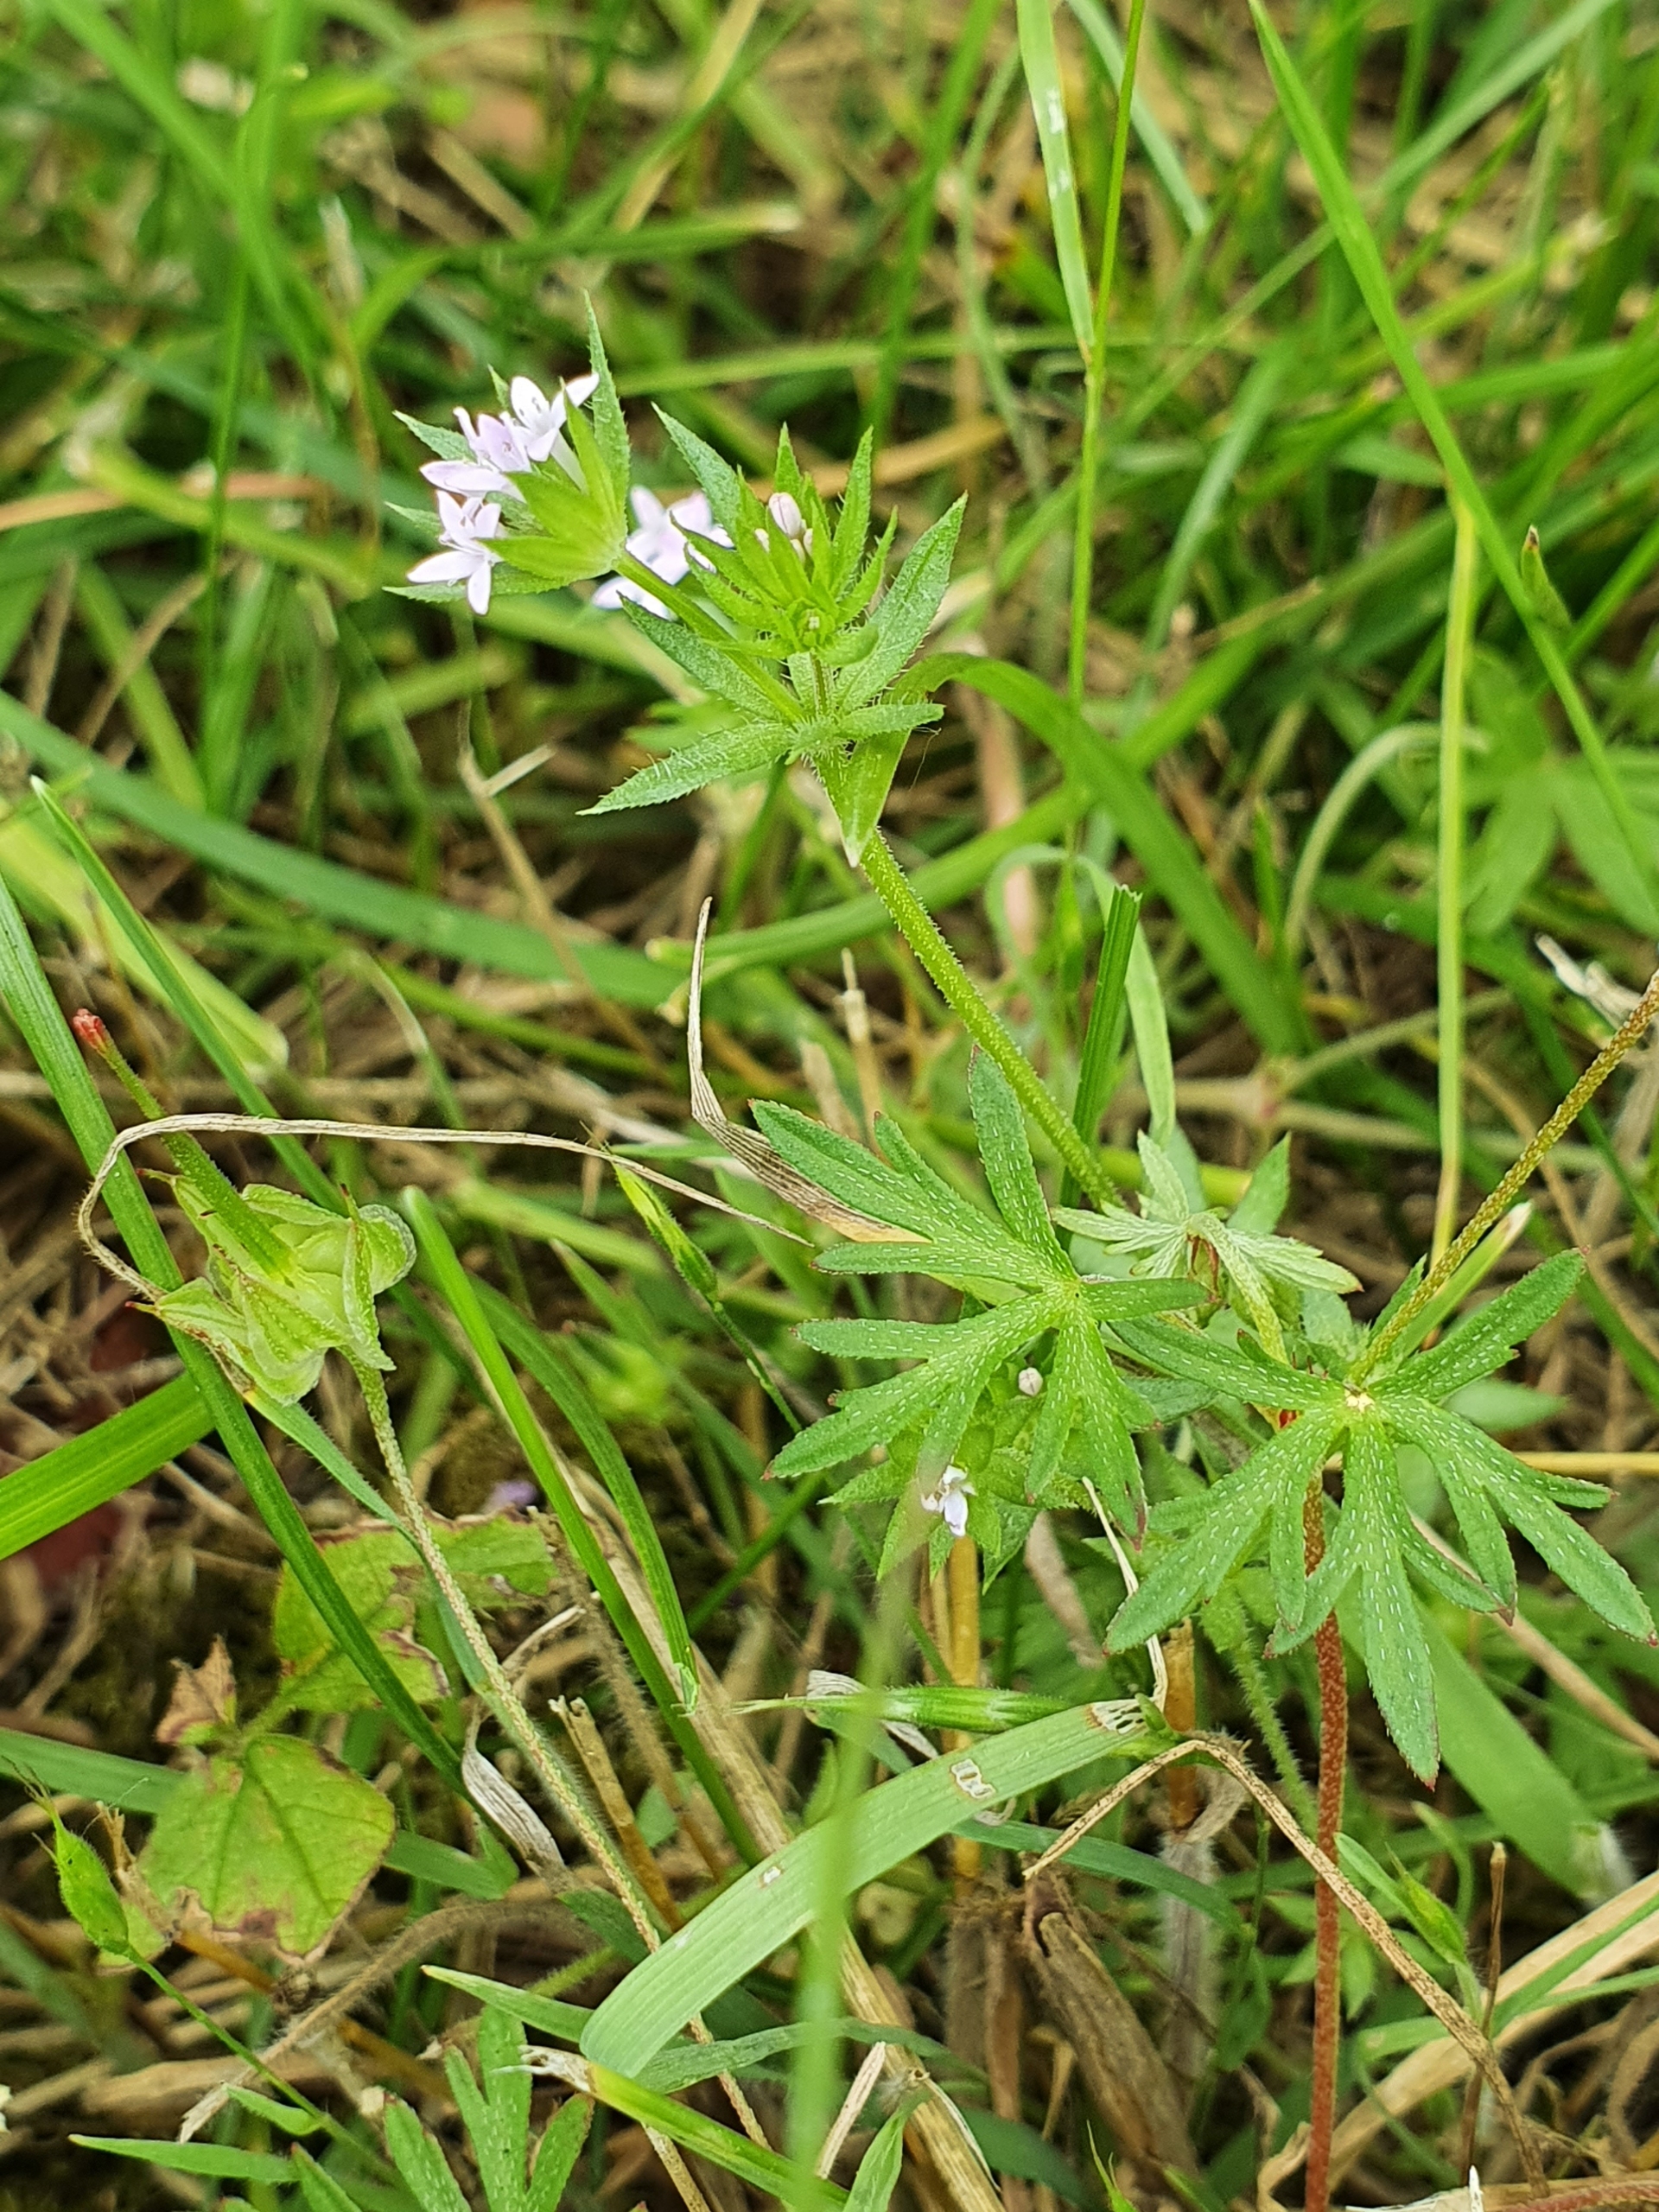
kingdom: Plantae
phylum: Tracheophyta
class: Magnoliopsida
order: Gentianales
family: Rubiaceae
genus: Sherardia
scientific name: Sherardia arvensis
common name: Blåstjerne
